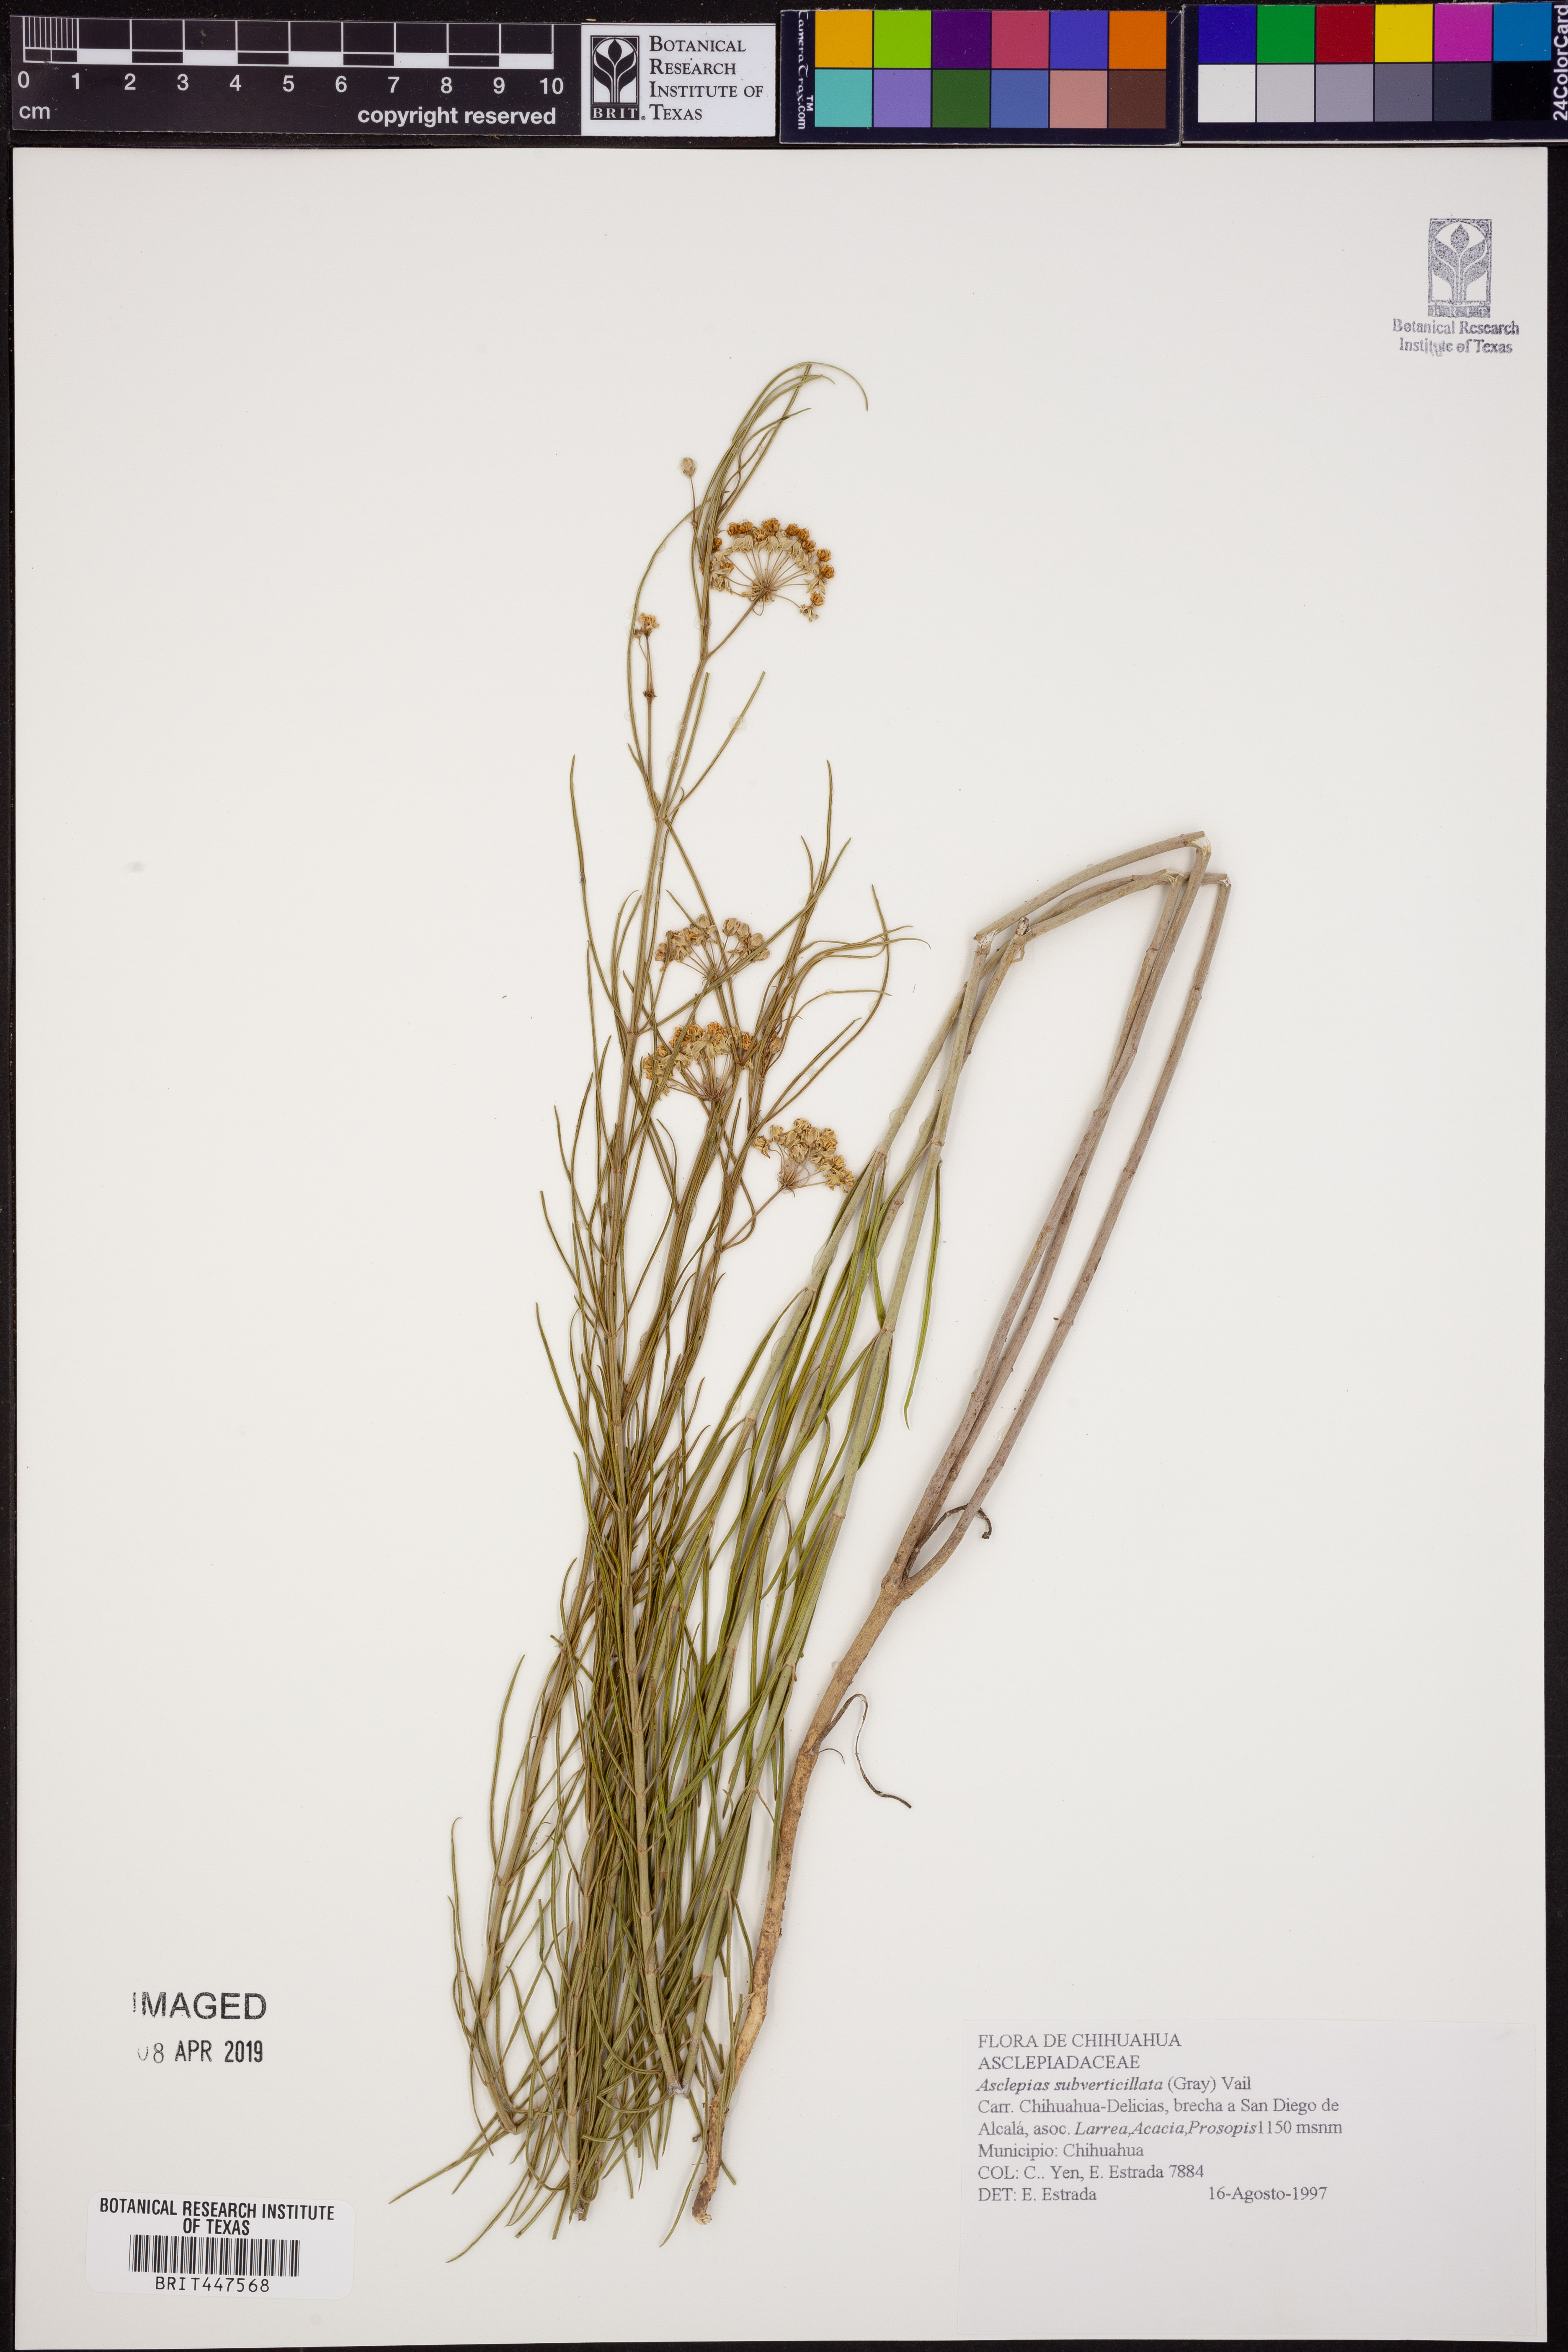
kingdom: Plantae
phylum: Tracheophyta
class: Magnoliopsida
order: Gentianales
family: Apocynaceae
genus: Asclepias
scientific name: Asclepias subverticillata
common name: Horsetail milkweed
